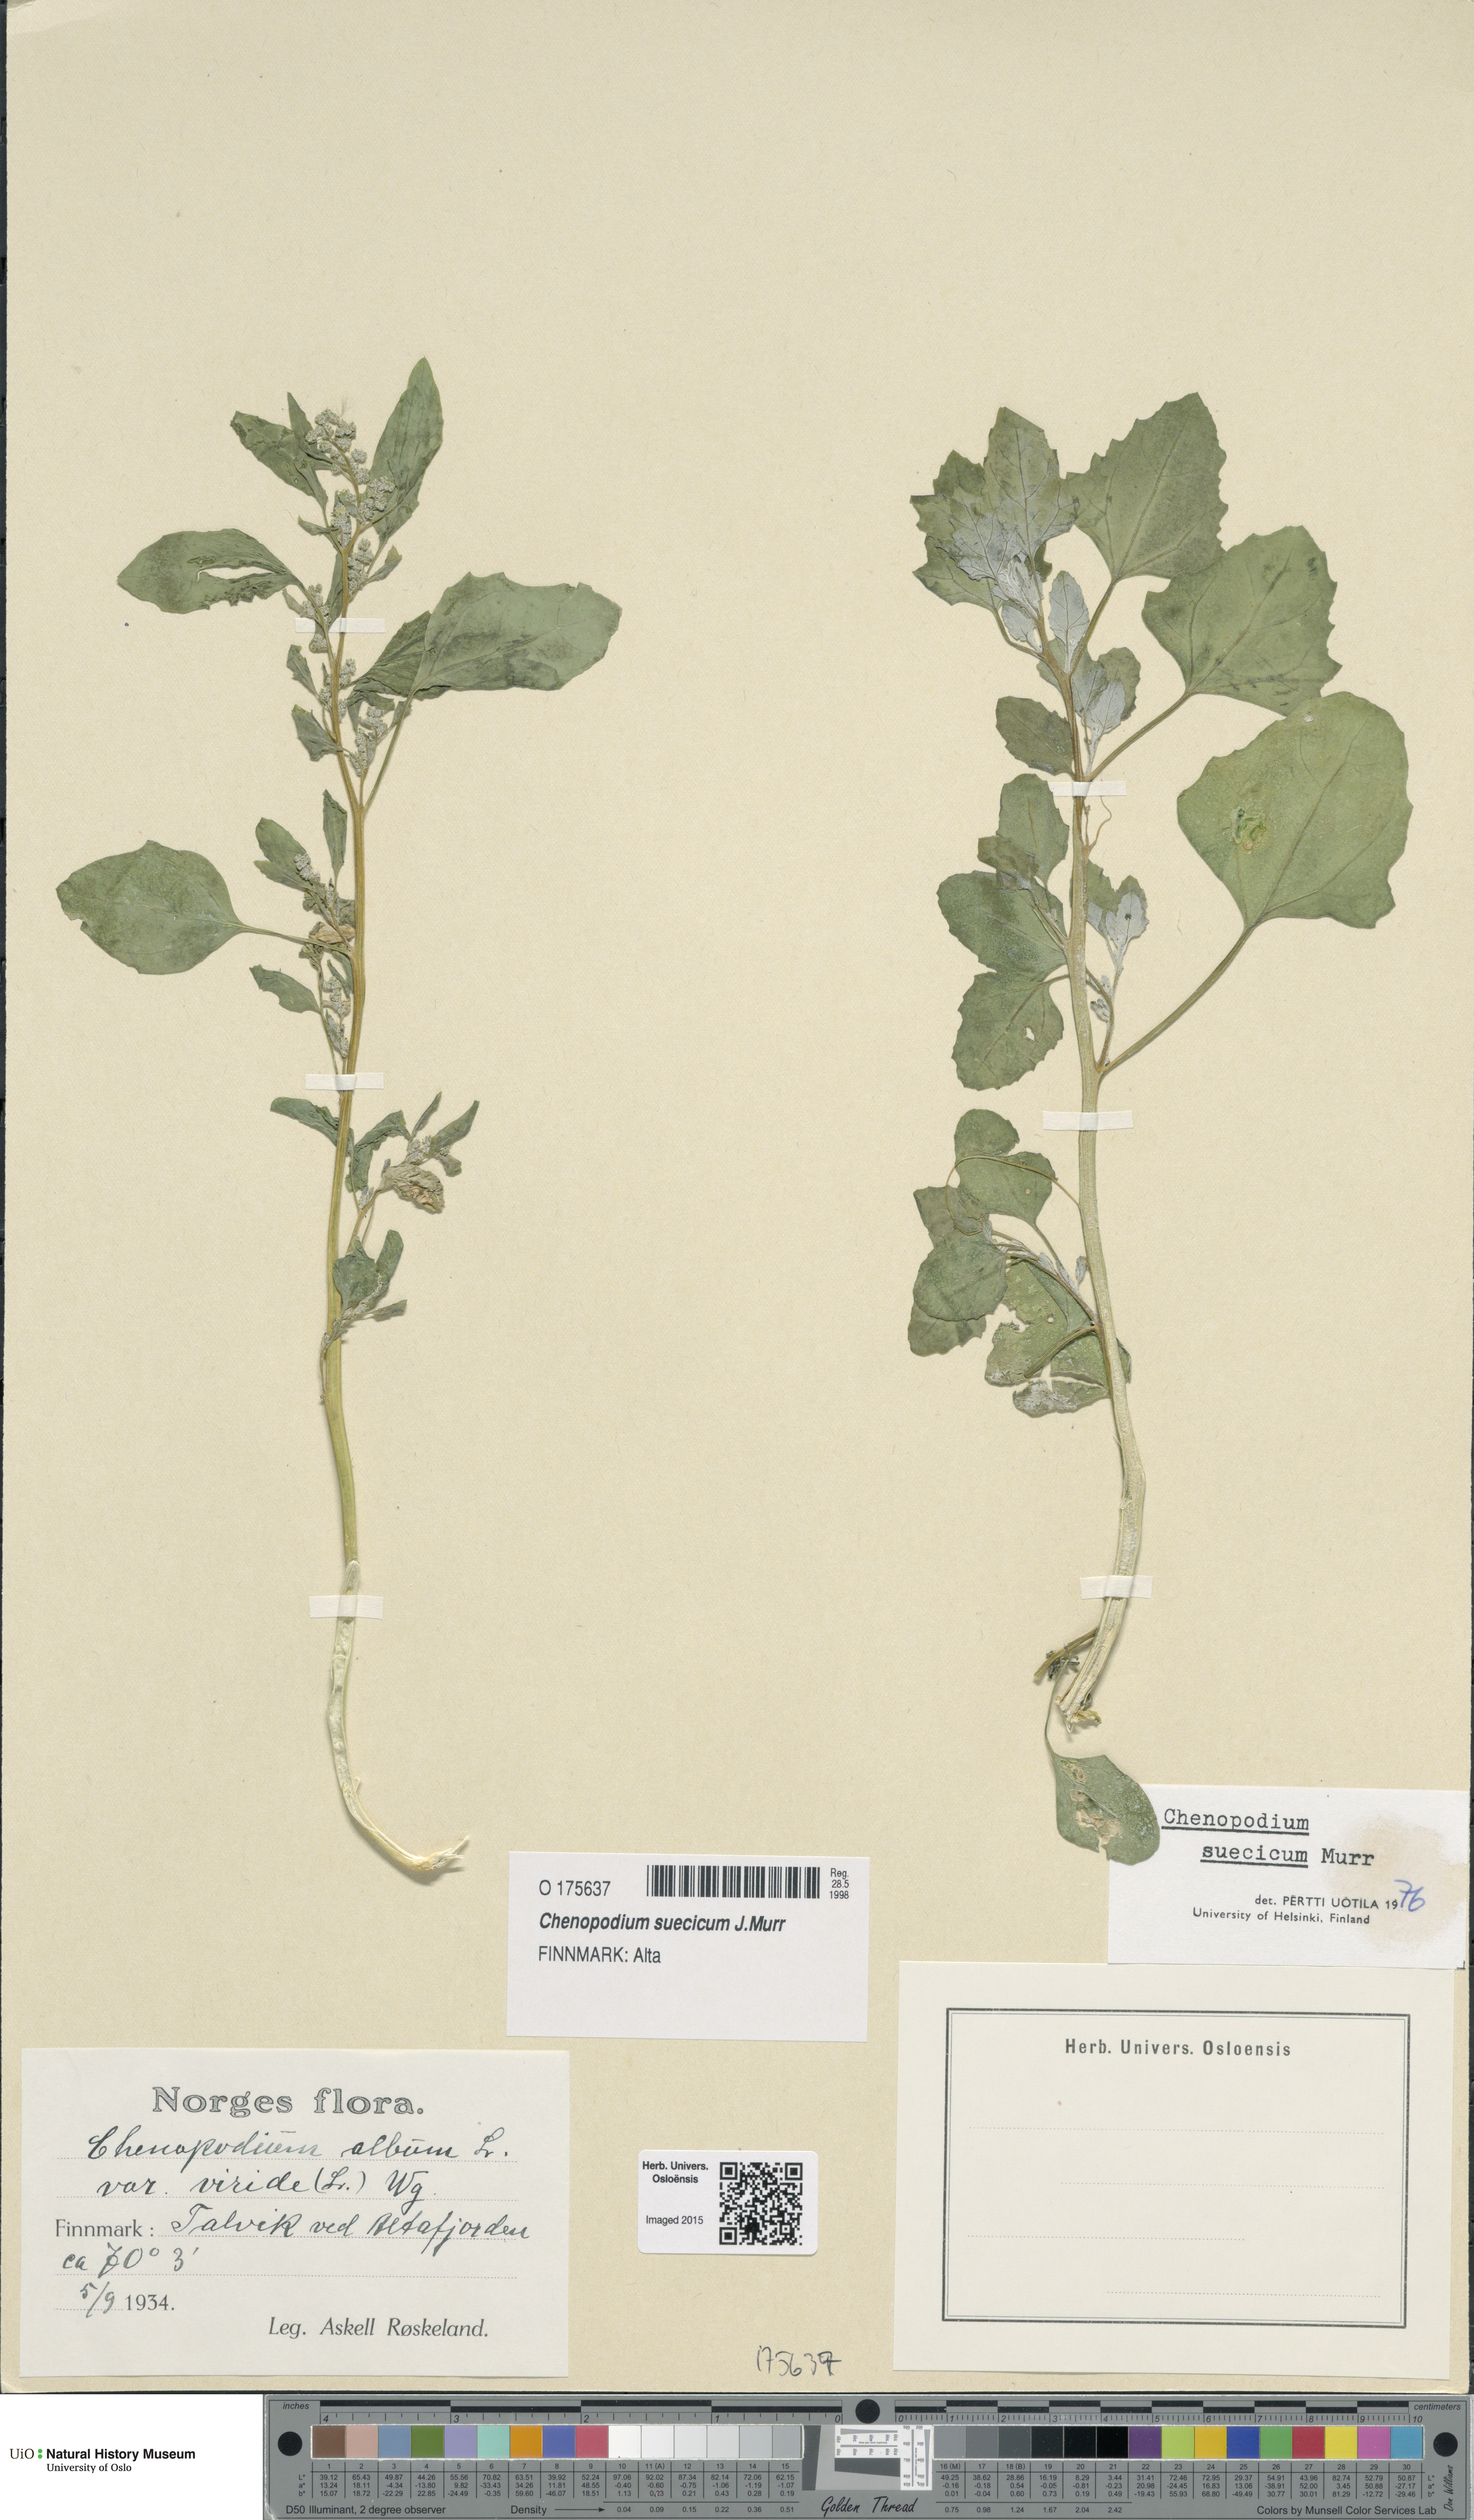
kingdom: Plantae
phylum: Tracheophyta
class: Magnoliopsida
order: Caryophyllales
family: Amaranthaceae
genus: Chenopodium
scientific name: Chenopodium suecicum
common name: Swedish goosefoot
